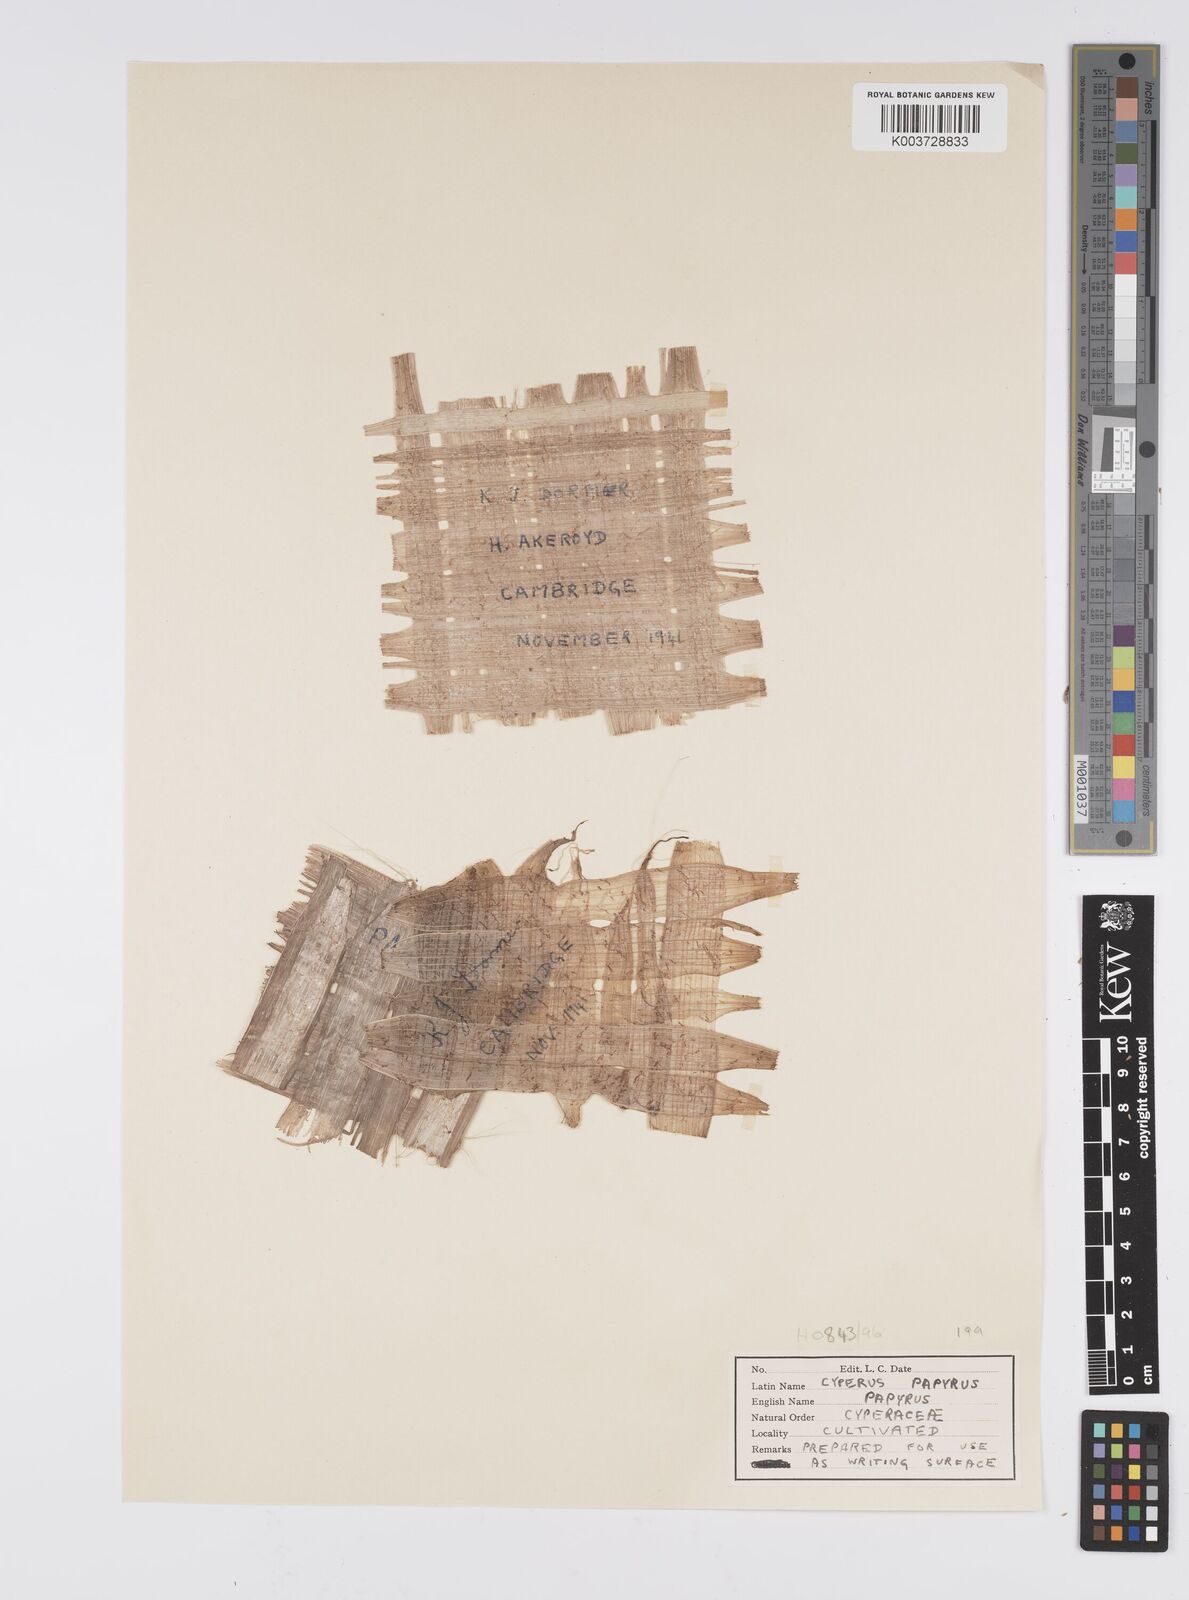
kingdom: Plantae
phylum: Tracheophyta
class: Liliopsida
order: Poales
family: Cyperaceae
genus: Cyperus
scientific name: Cyperus papyrus
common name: Papyrus
